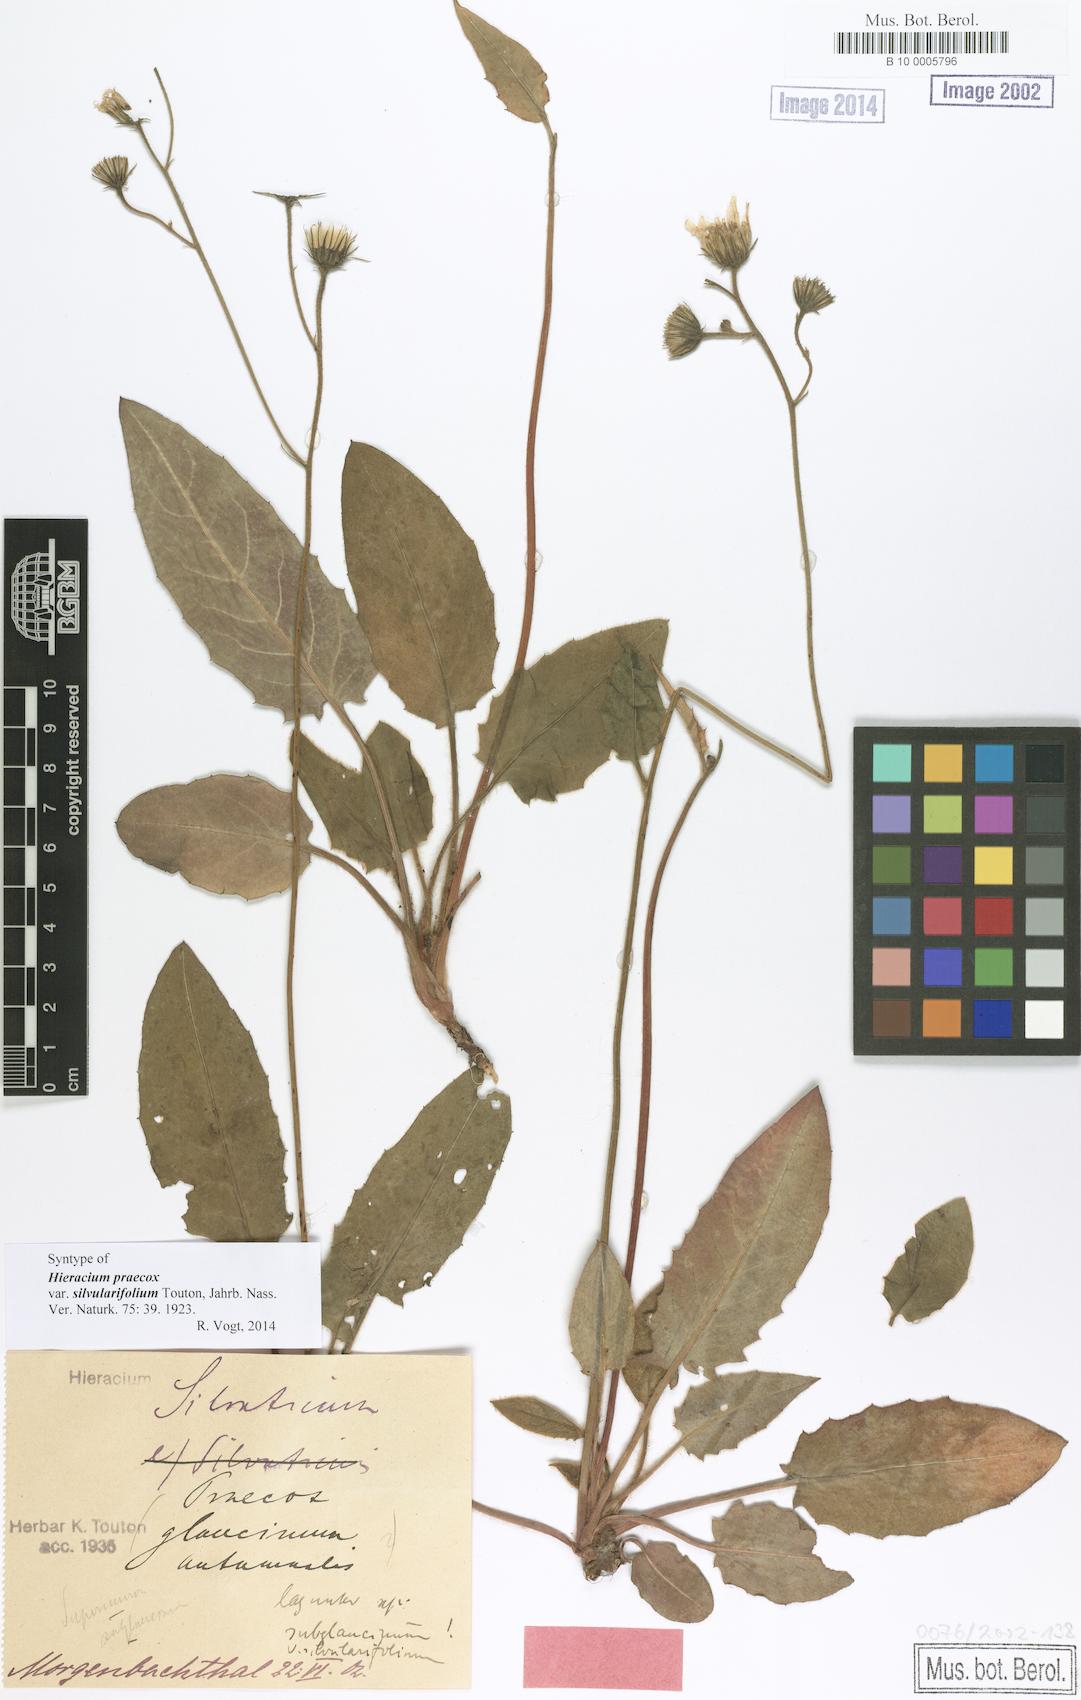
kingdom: Plantae
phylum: Tracheophyta
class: Magnoliopsida
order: Asterales
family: Asteraceae
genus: Hieracium
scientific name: Hieracium praecox
